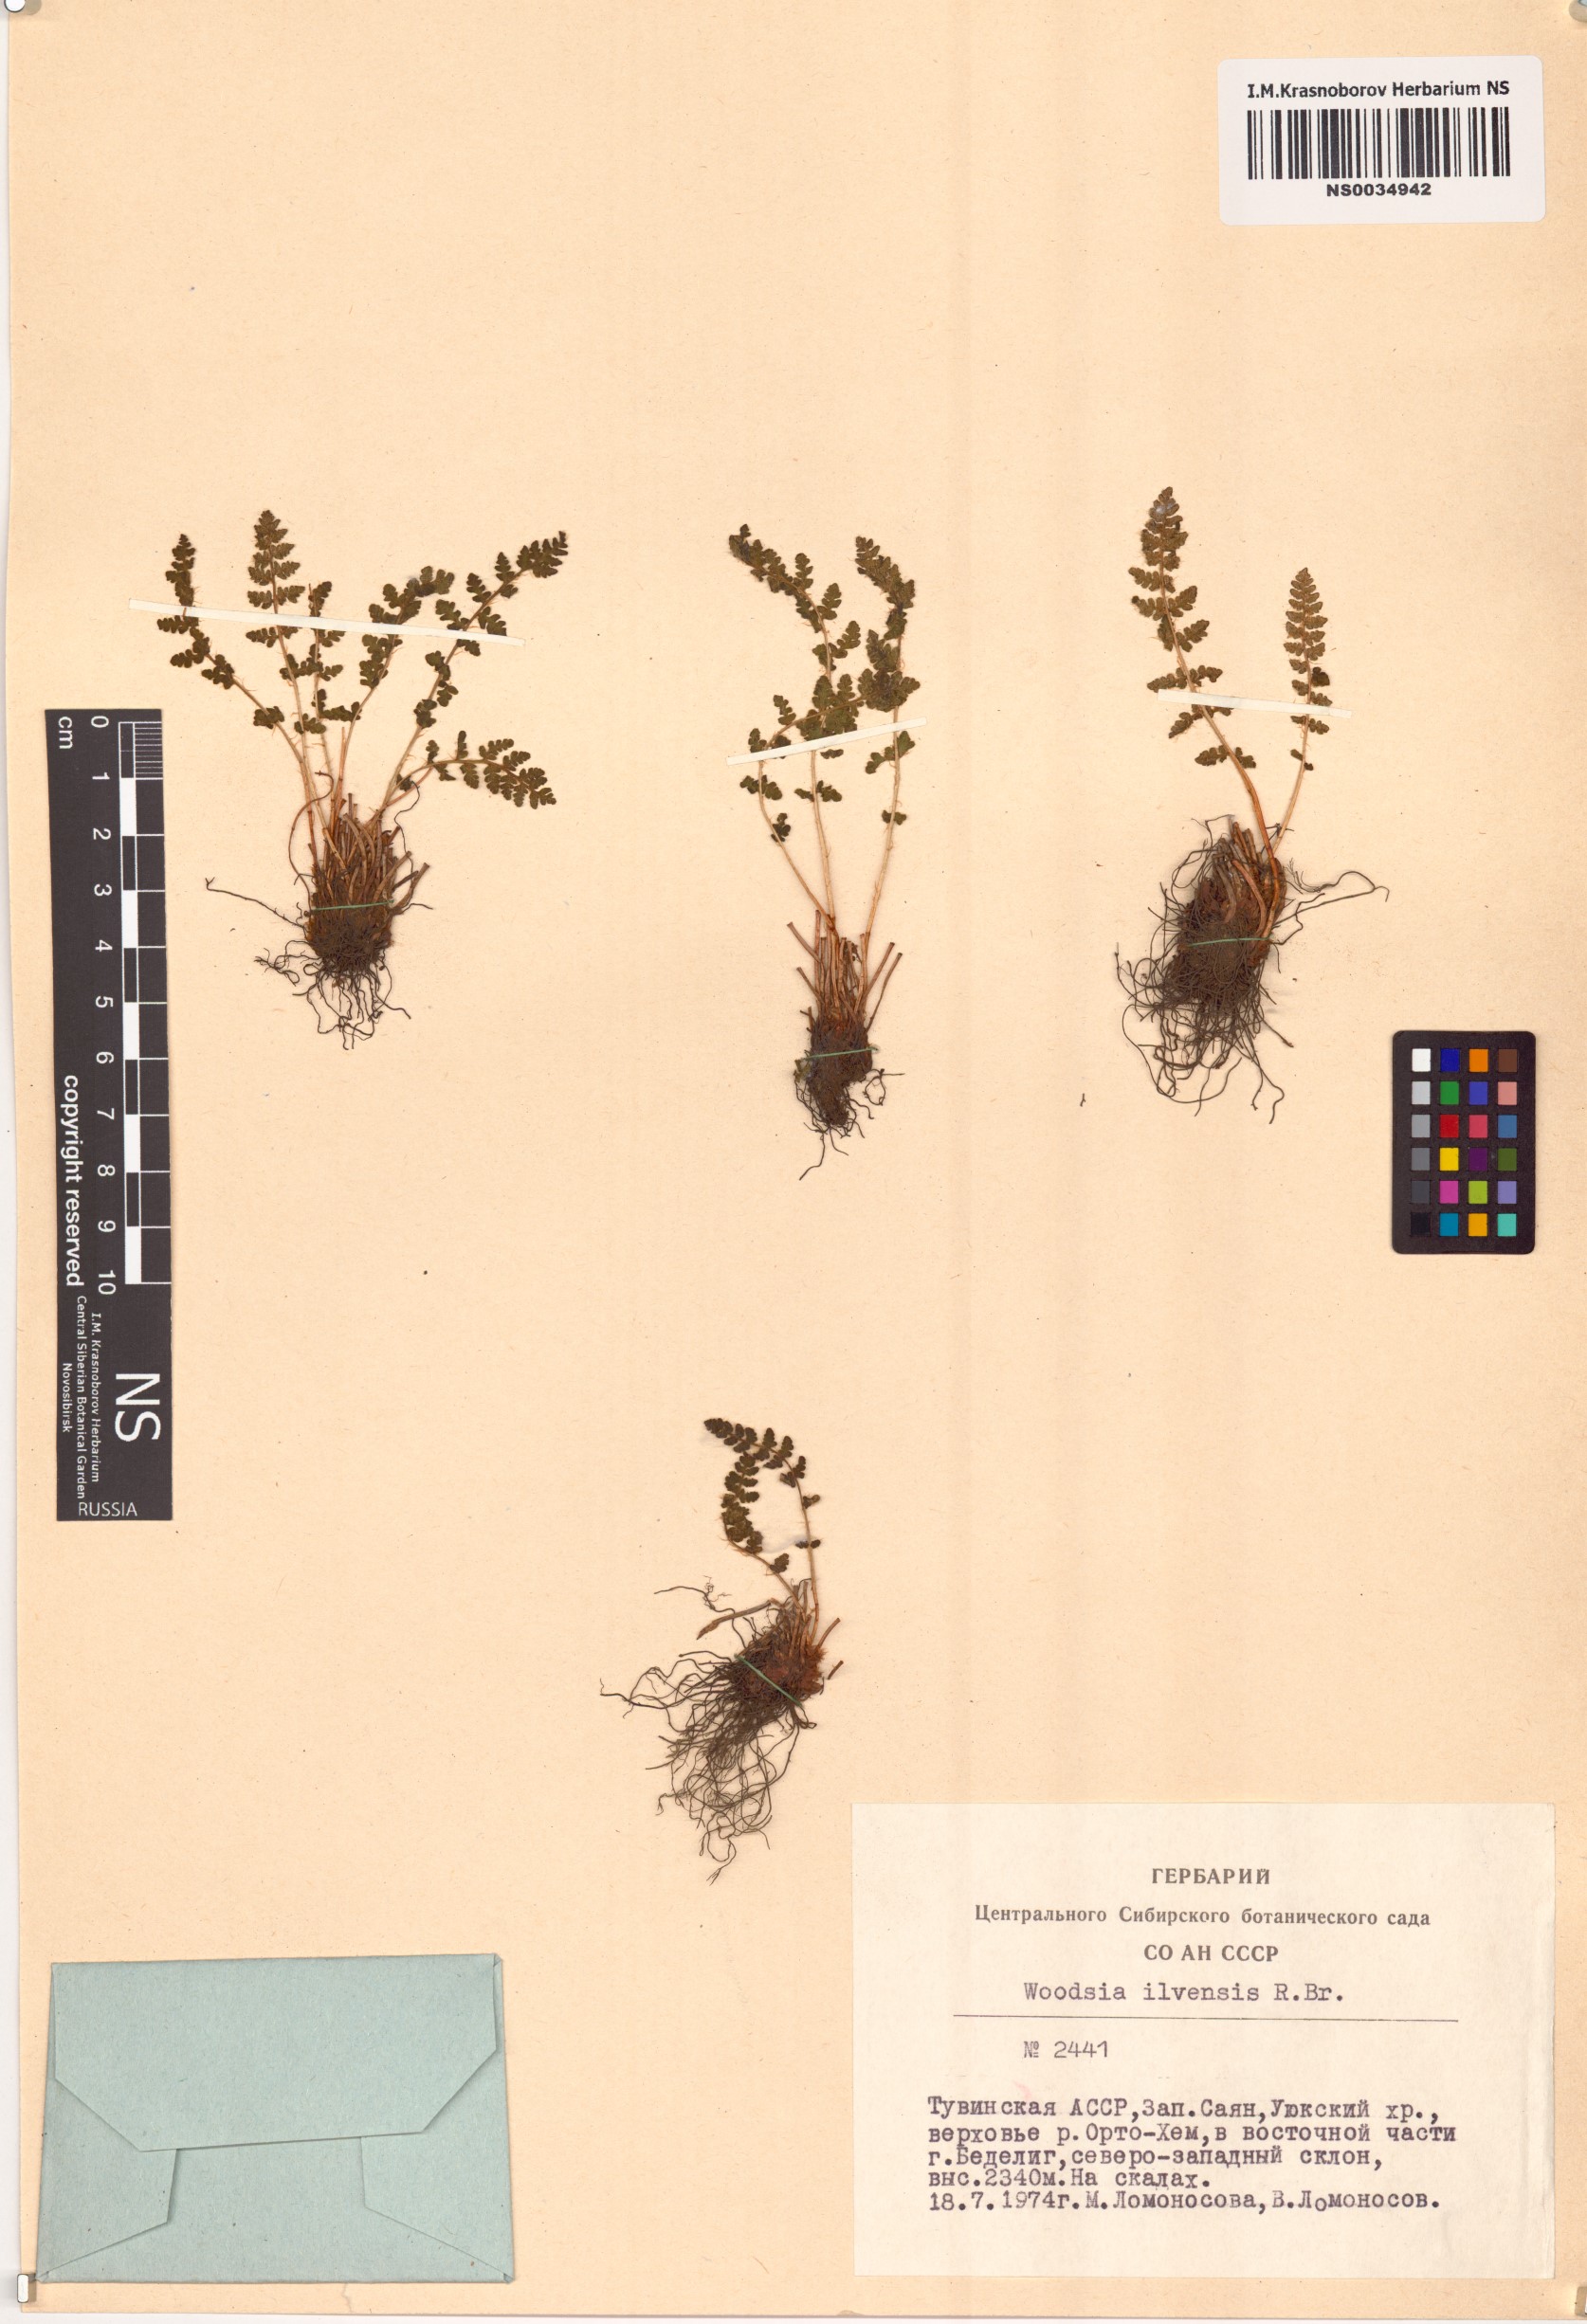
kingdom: Plantae
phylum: Tracheophyta
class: Polypodiopsida
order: Polypodiales
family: Woodsiaceae
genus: Woodsia
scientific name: Woodsia ilvensis
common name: Fragrant woodsia
